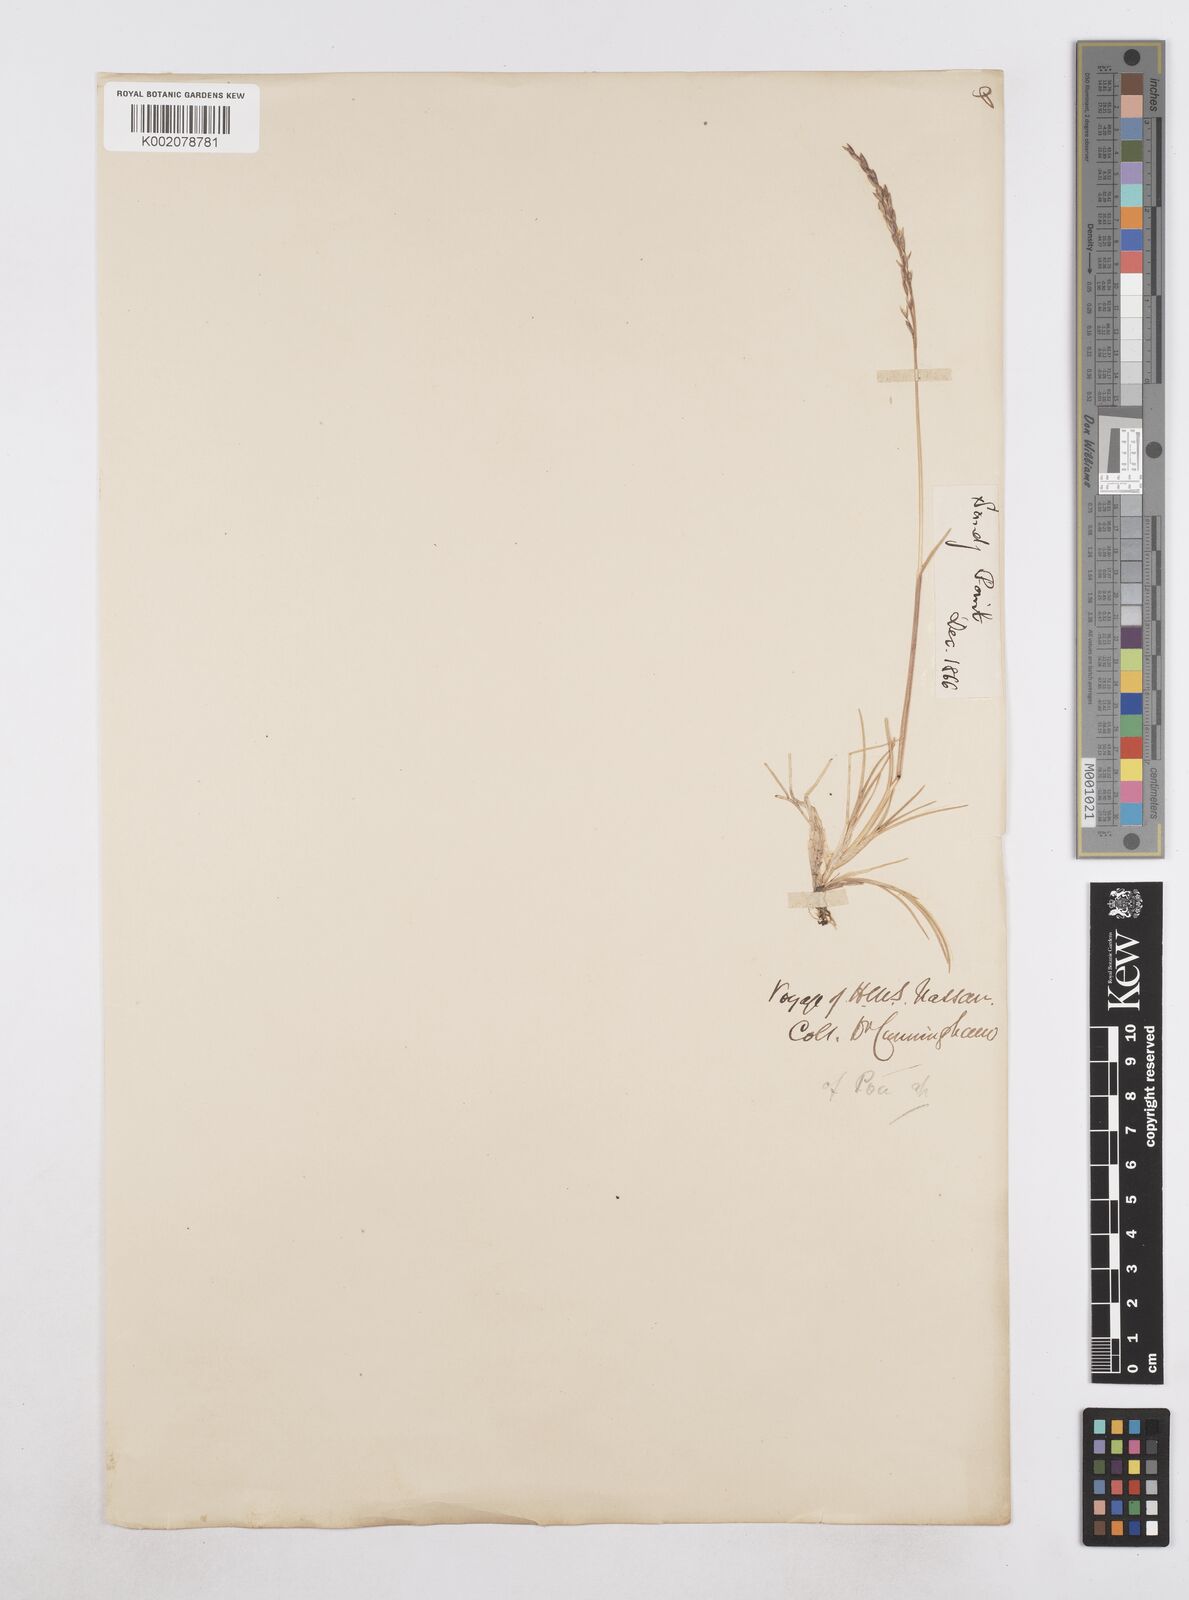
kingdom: Plantae
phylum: Tracheophyta
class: Liliopsida
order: Poales
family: Poaceae
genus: Poa
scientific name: Poa
